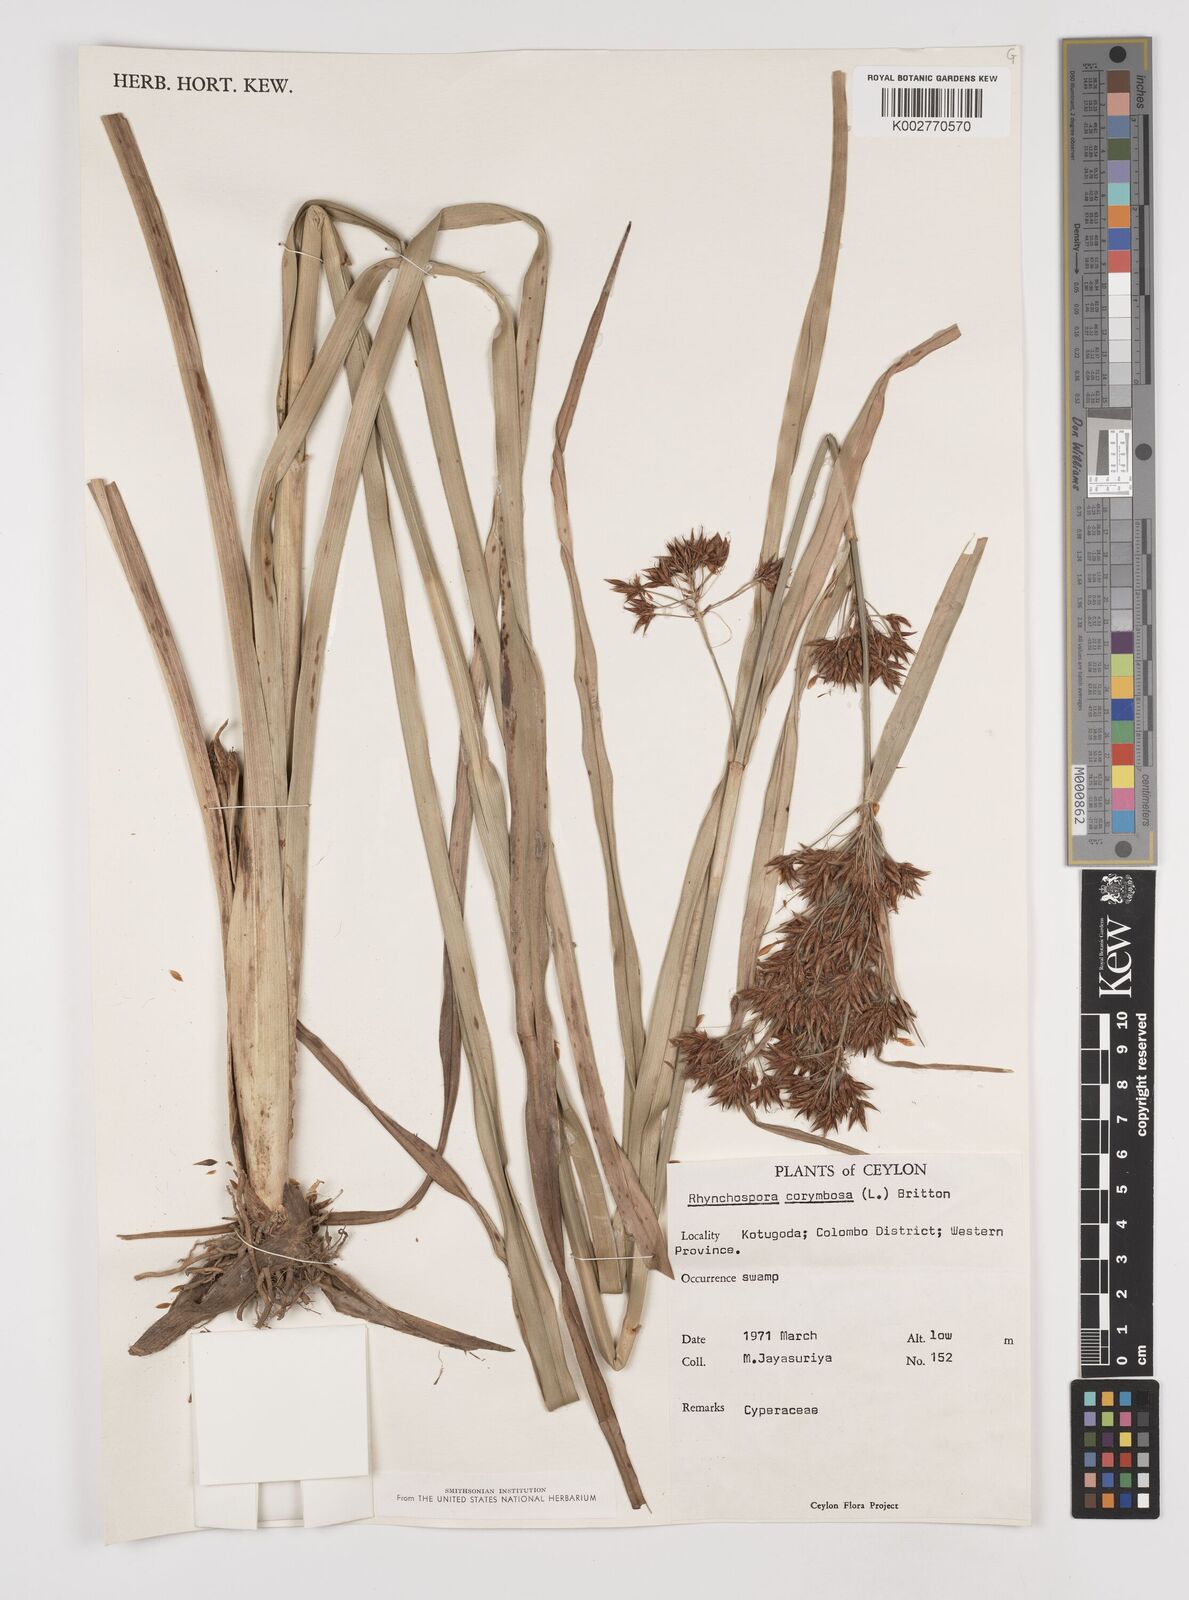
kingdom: Plantae
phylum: Tracheophyta
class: Liliopsida
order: Poales
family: Cyperaceae
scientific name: Cyperaceae
